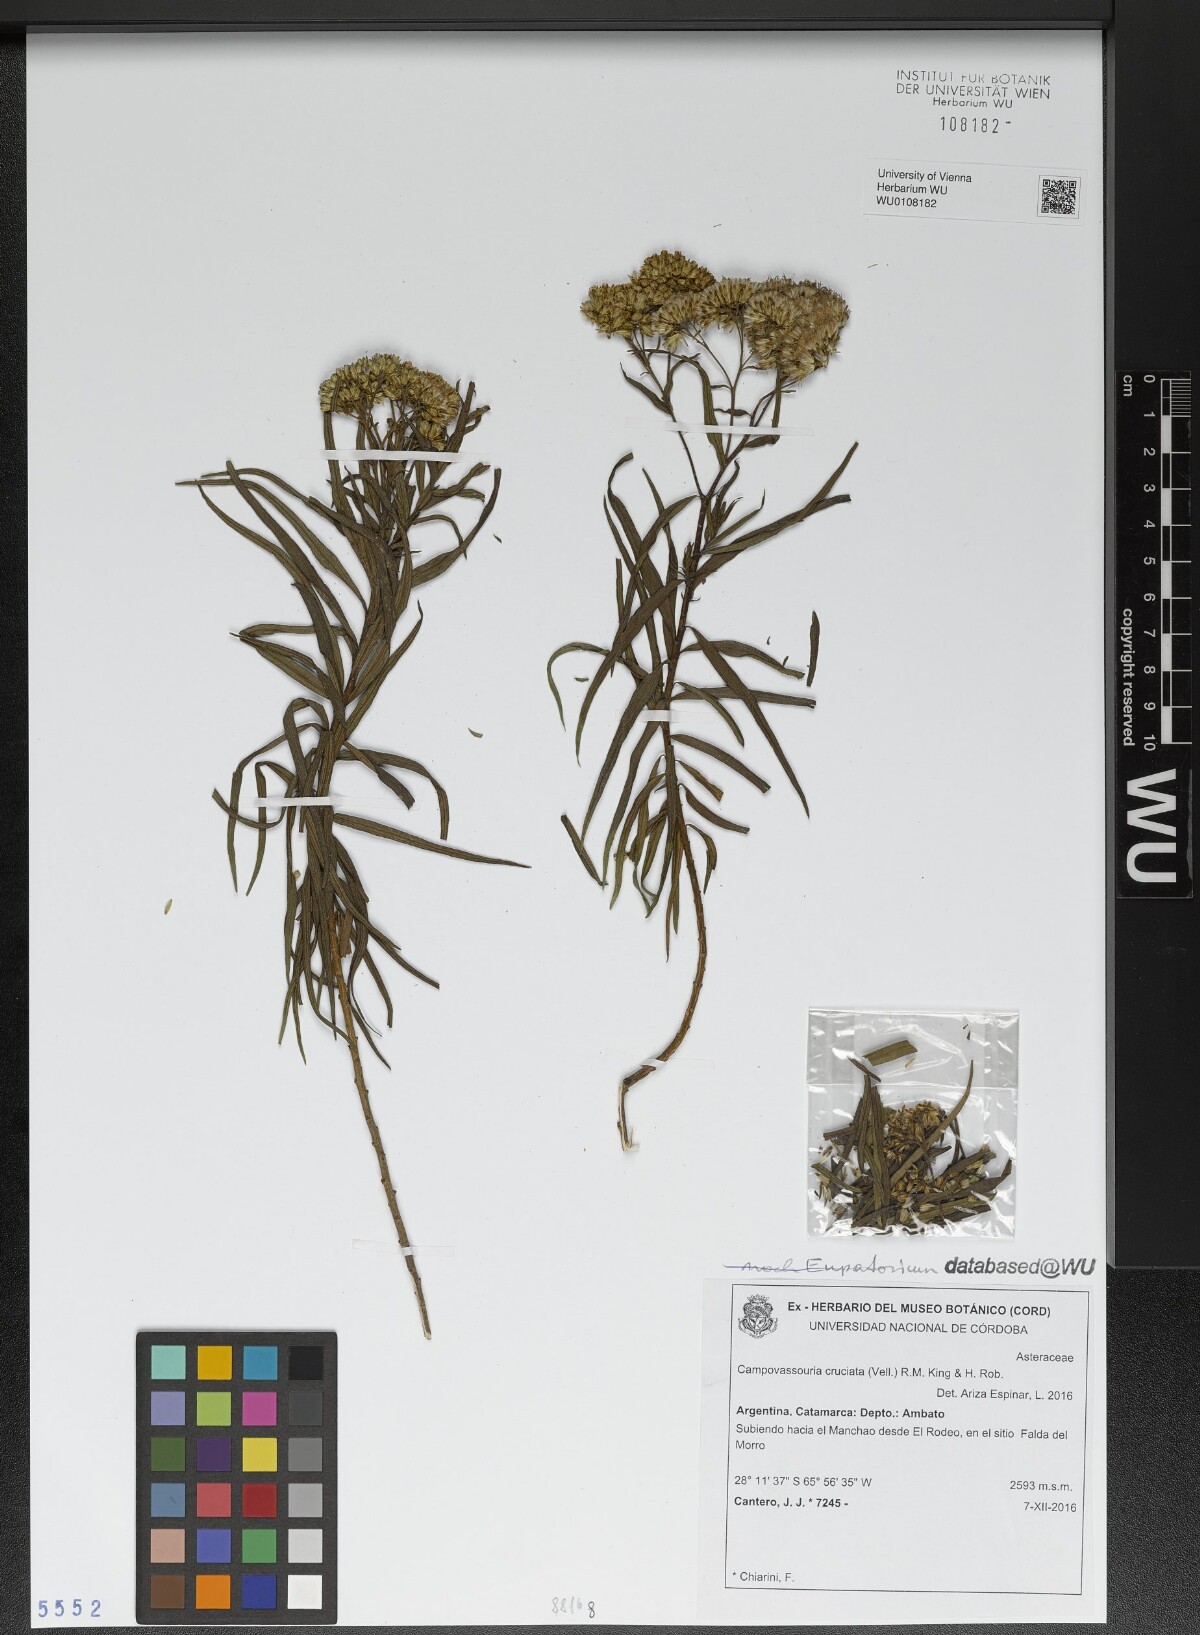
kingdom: Plantae
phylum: Tracheophyta
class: Magnoliopsida
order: Asterales
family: Asteraceae
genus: Campovassouria
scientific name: Campovassouria cruciata
